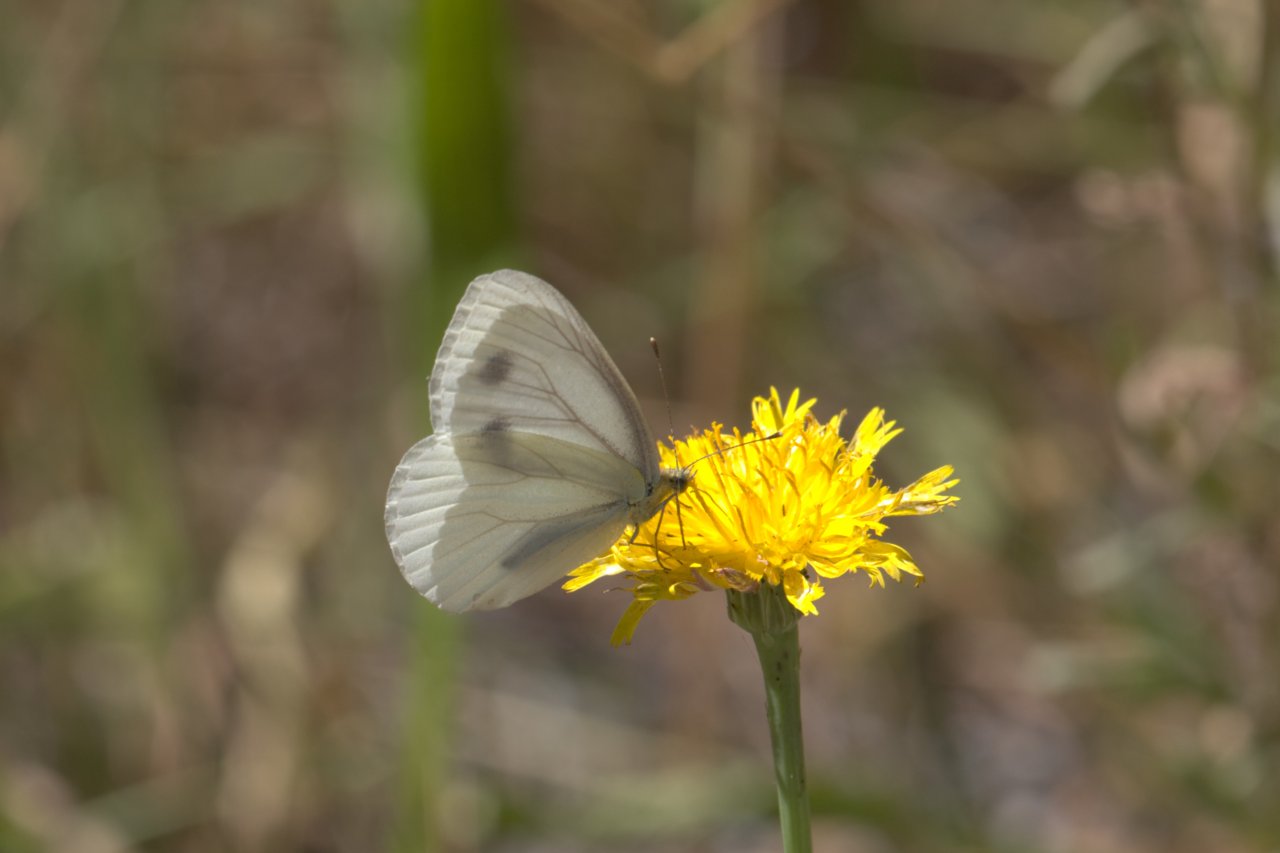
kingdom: Animalia
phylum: Arthropoda
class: Insecta
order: Lepidoptera
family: Pieridae
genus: Pieris
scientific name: Pieris marginalis
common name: Margined White
